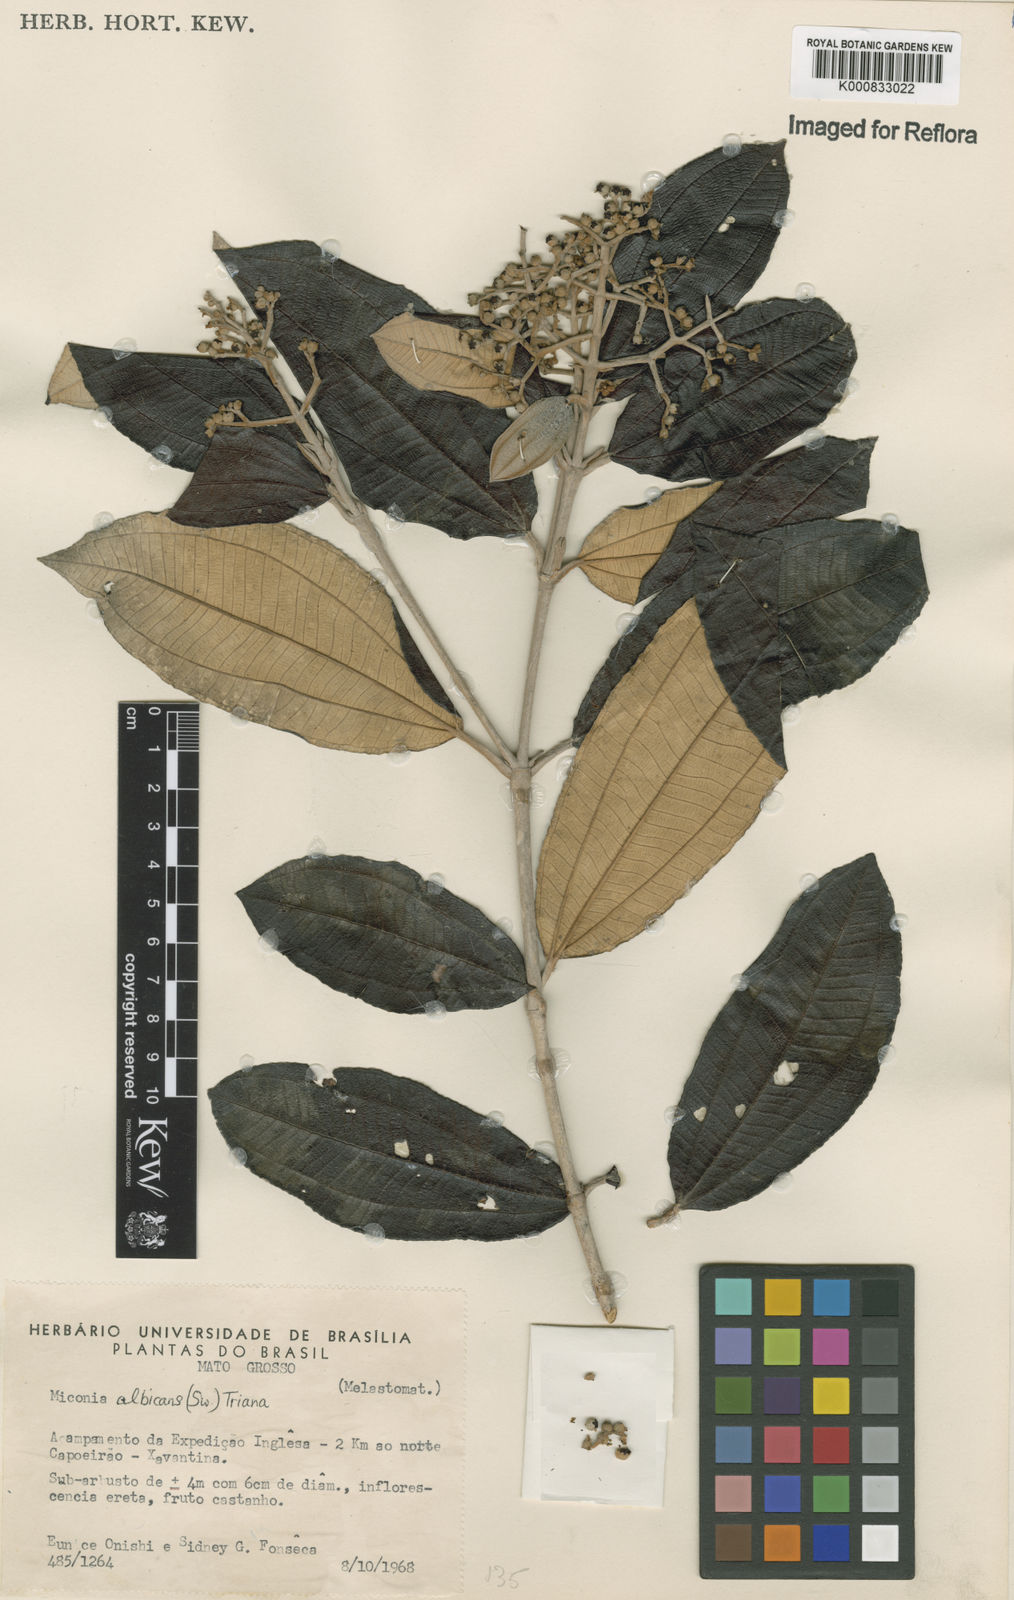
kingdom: Plantae
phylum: Tracheophyta
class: Magnoliopsida
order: Myrtales
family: Melastomataceae
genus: Miconia
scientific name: Miconia albicans
